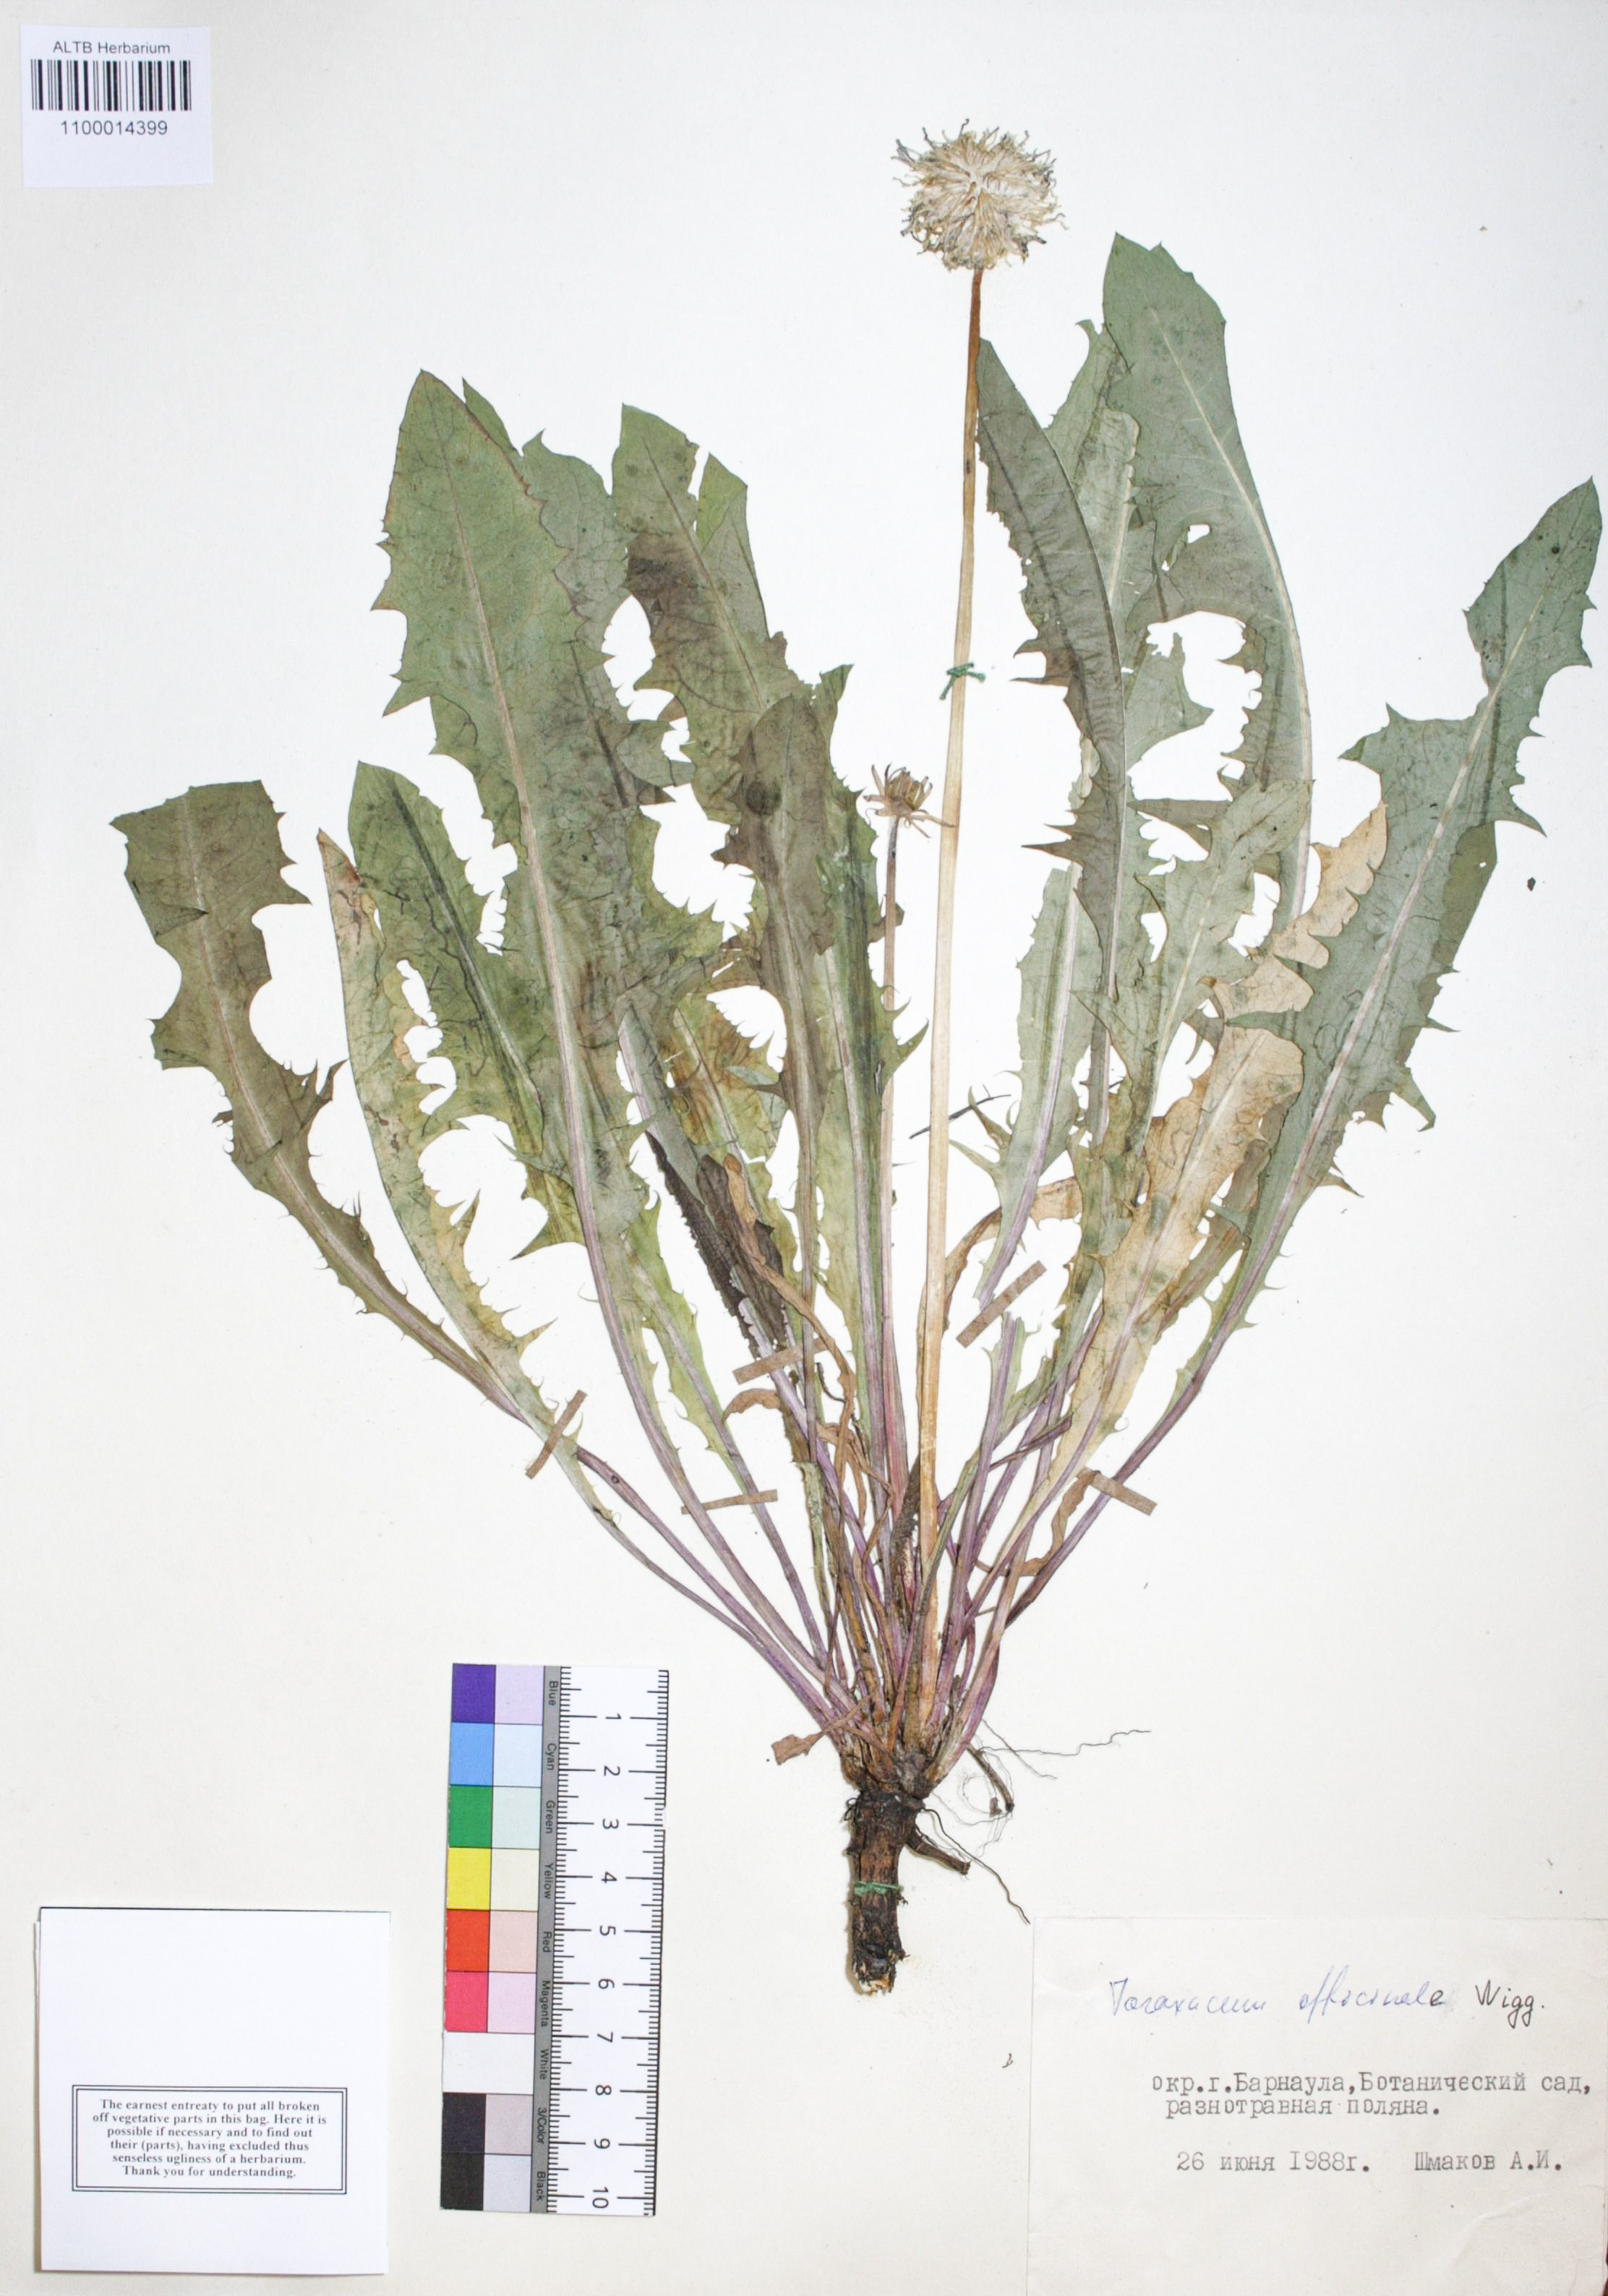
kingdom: Plantae
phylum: Tracheophyta
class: Magnoliopsida
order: Asterales
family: Asteraceae
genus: Taraxacum
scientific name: Taraxacum officinale
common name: Common dandelion
